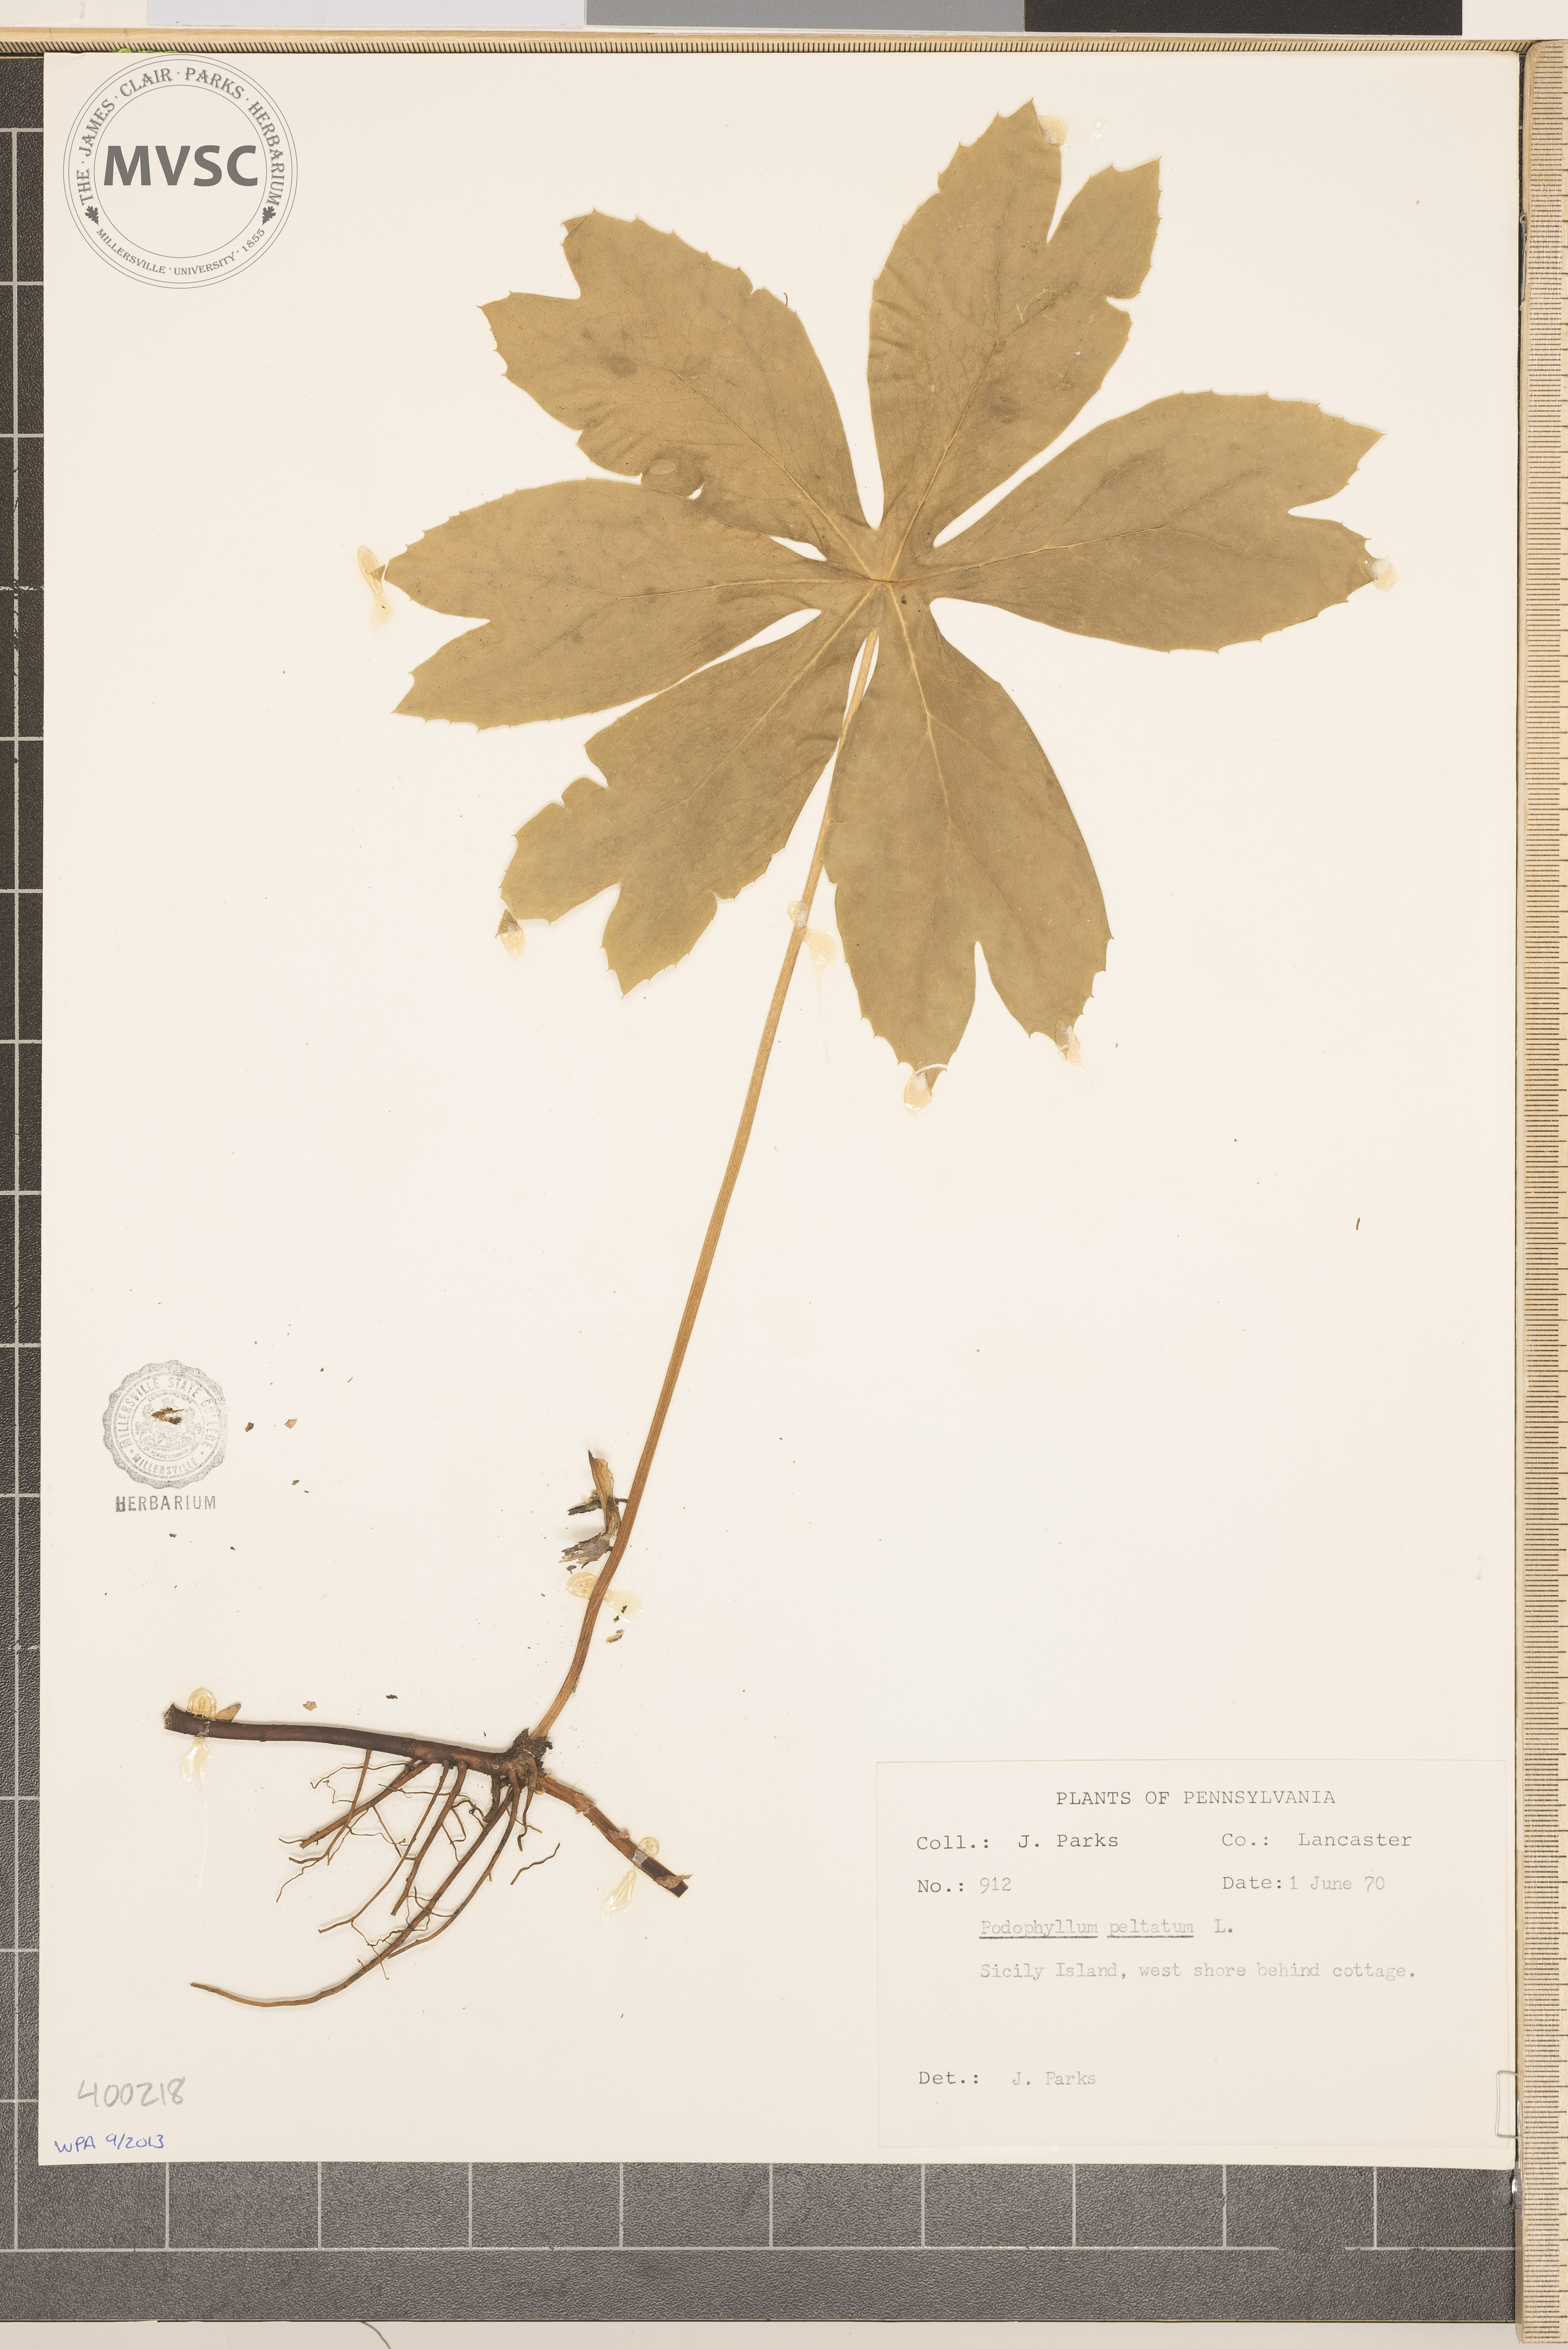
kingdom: Plantae
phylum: Tracheophyta
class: Magnoliopsida
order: Ranunculales
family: Berberidaceae
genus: Podophyllum
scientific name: Podophyllum peltatum
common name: May-apple
